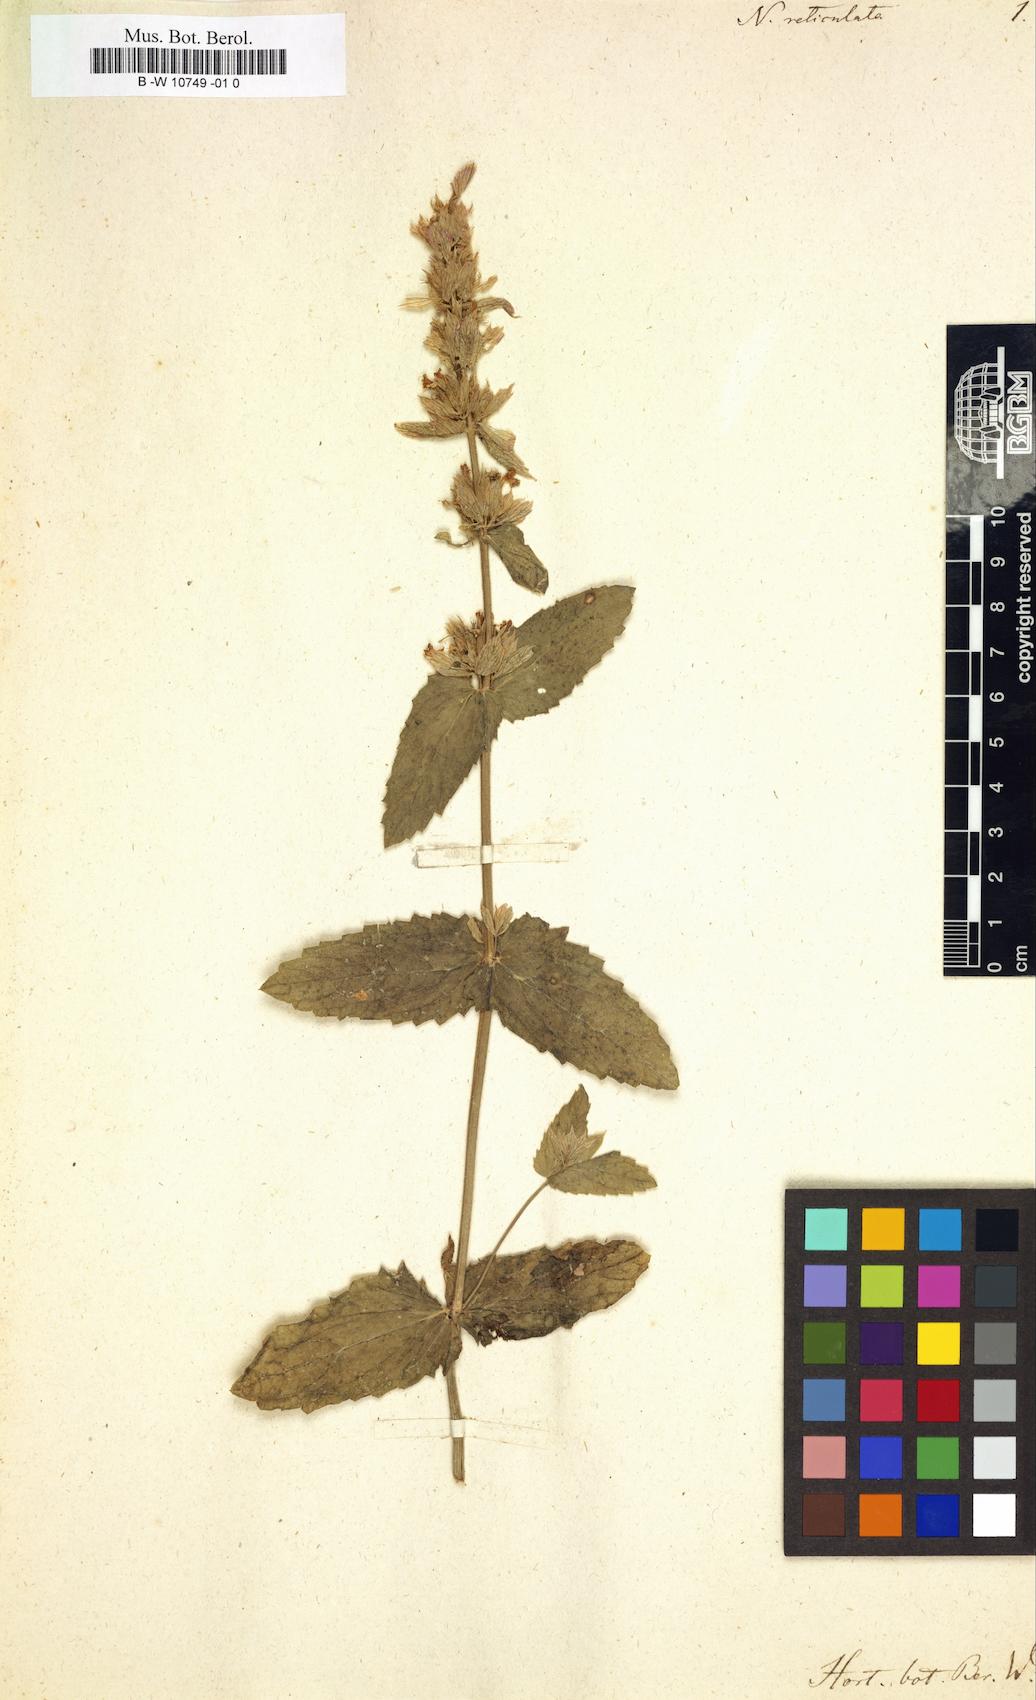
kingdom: Plantae
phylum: Tracheophyta
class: Magnoliopsida
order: Lamiales
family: Lamiaceae
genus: Nepeta
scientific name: Nepeta tuberosa
